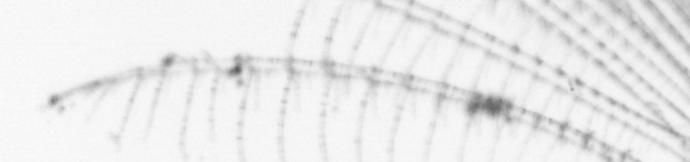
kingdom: Animalia
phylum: Arthropoda
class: Maxillopoda
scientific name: Maxillopoda
